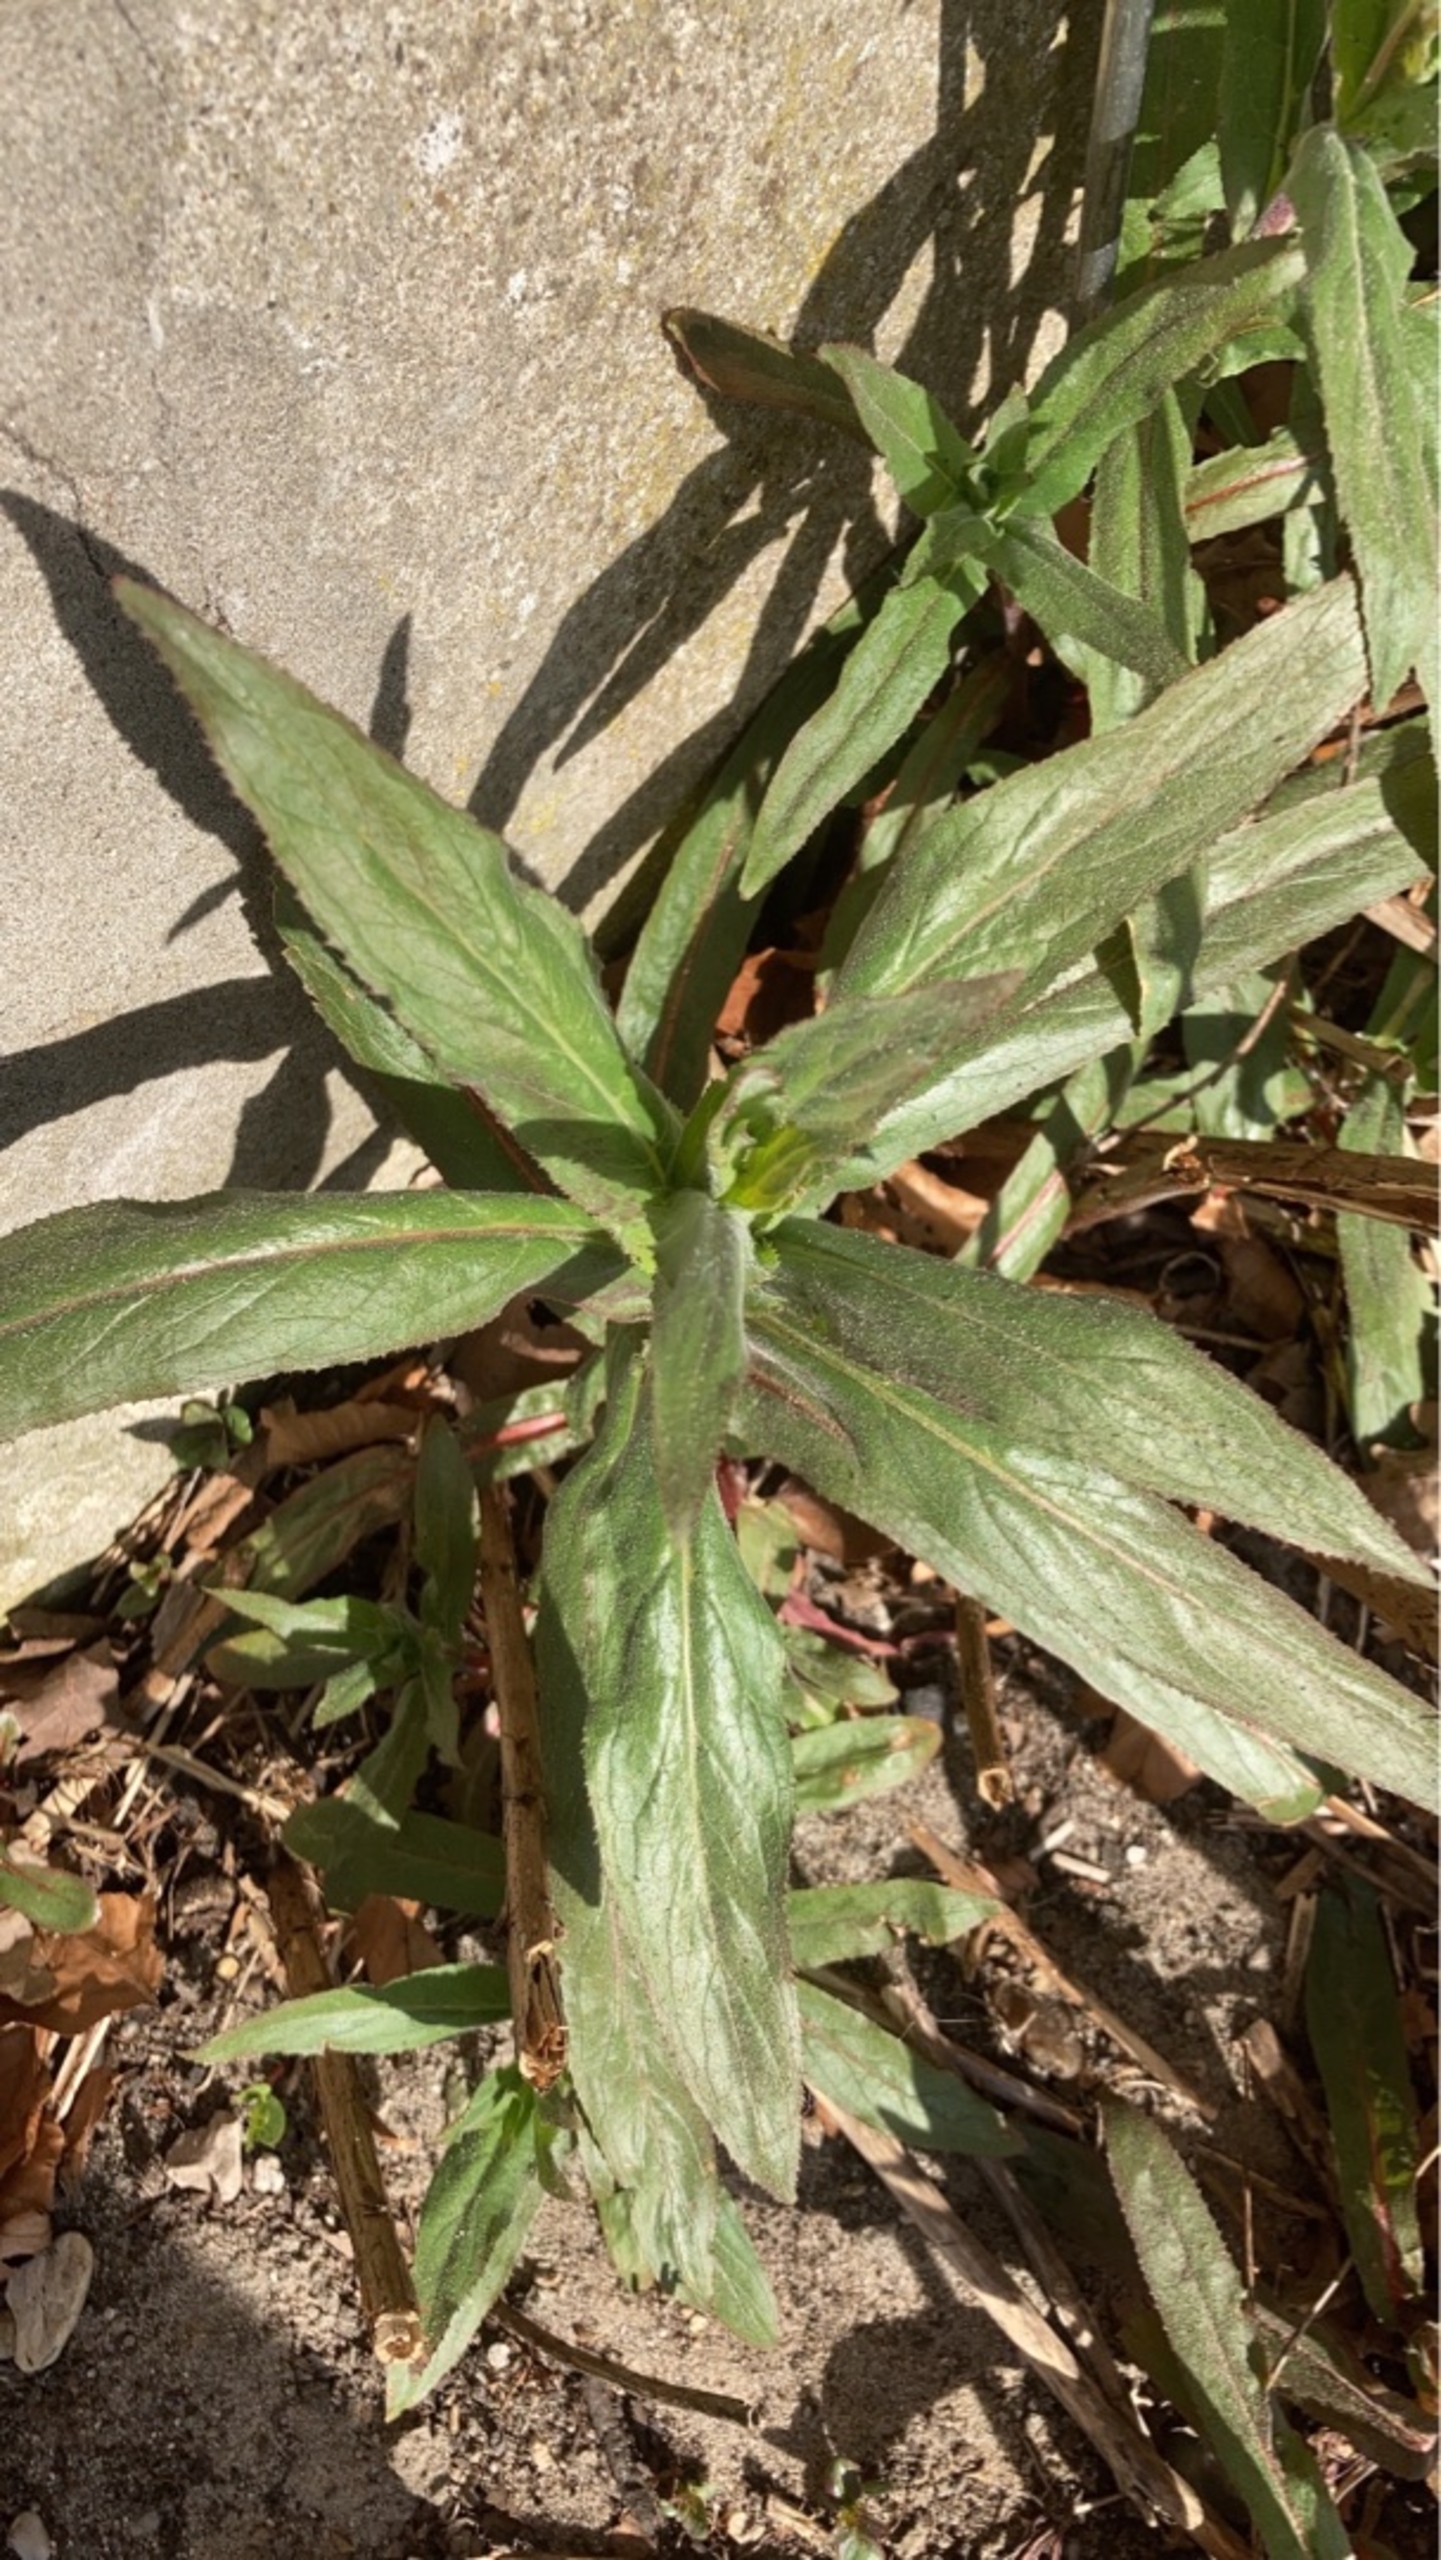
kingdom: Plantae
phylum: Tracheophyta
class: Magnoliopsida
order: Myrtales
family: Onagraceae
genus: Epilobium
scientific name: Epilobium hirsutum
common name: Lådden dueurt
